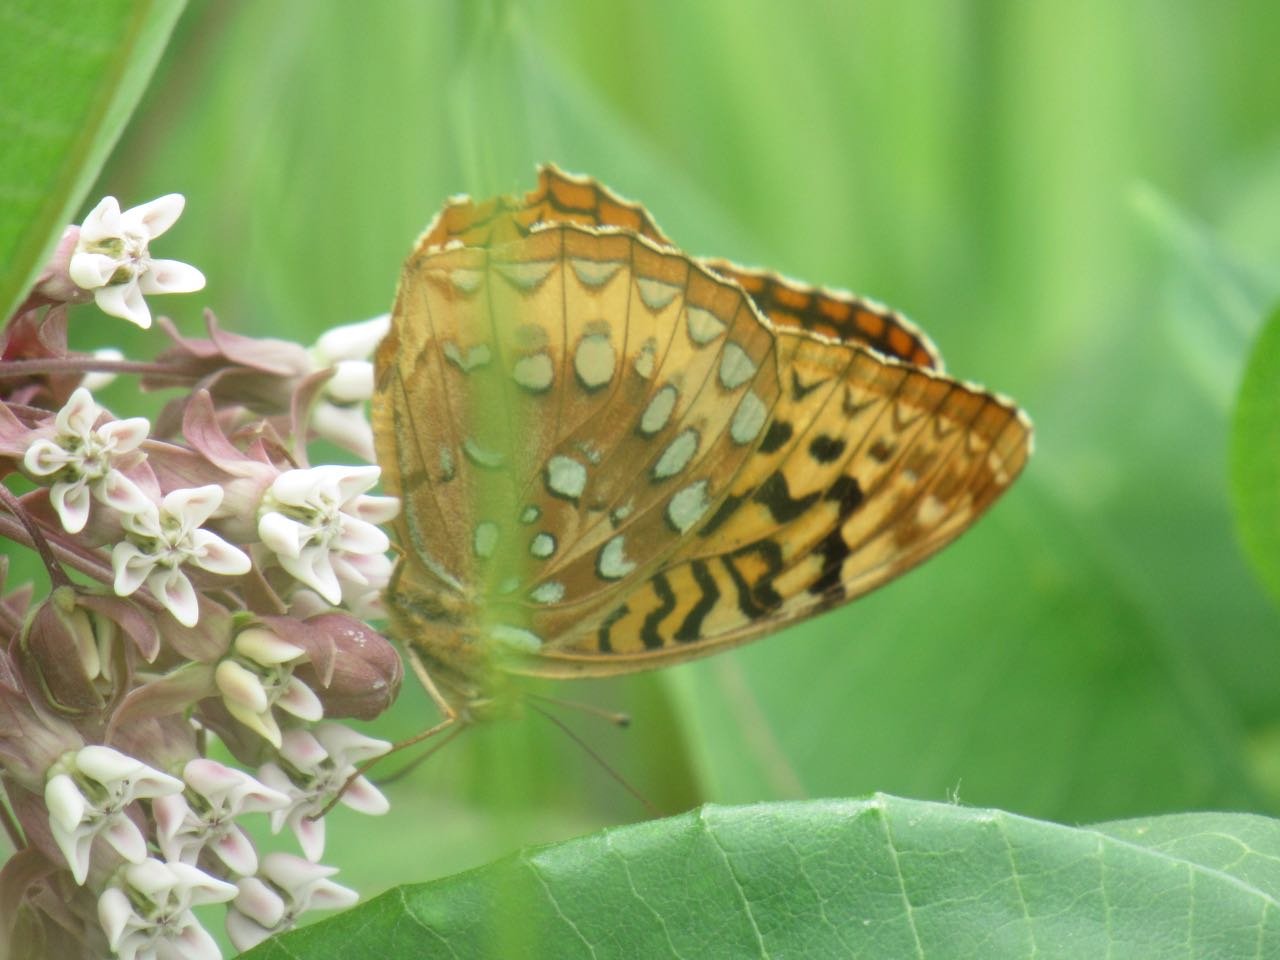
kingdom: Animalia
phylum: Arthropoda
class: Insecta
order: Lepidoptera
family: Nymphalidae
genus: Speyeria
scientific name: Speyeria cybele
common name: Great Spangled Fritillary
